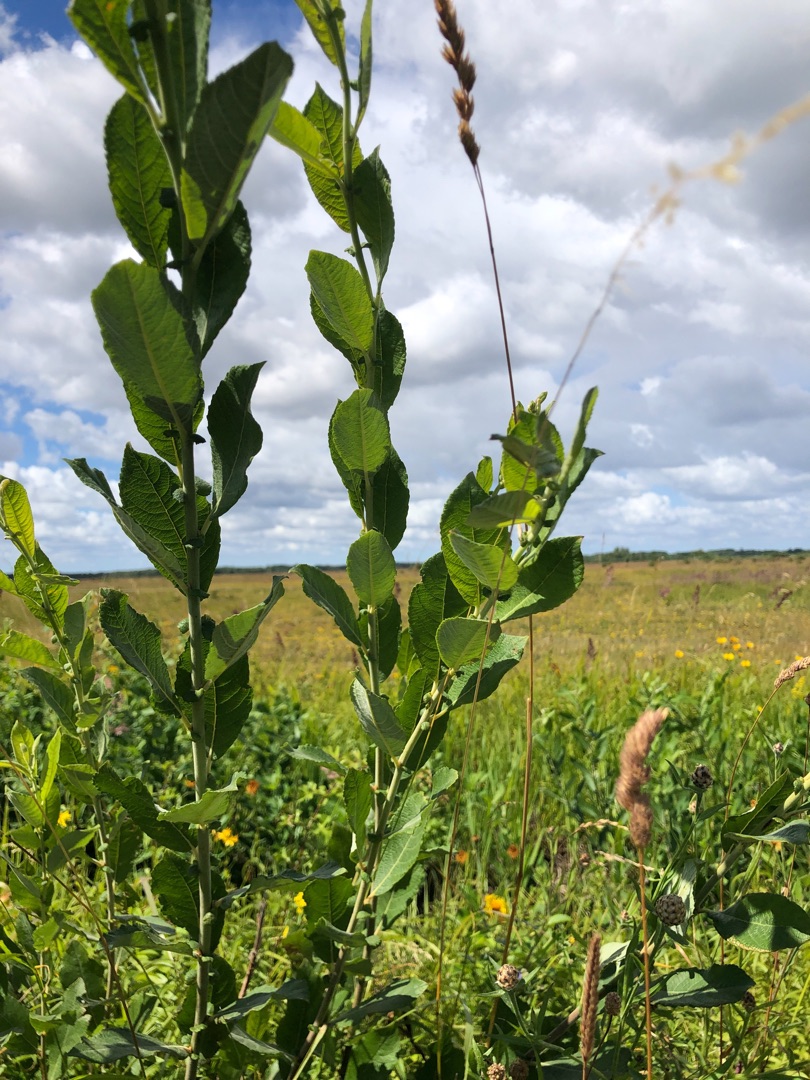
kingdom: Plantae
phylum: Tracheophyta
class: Magnoliopsida
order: Malpighiales
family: Salicaceae
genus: Salix
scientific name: Salix cinerea
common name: Grå-pil
